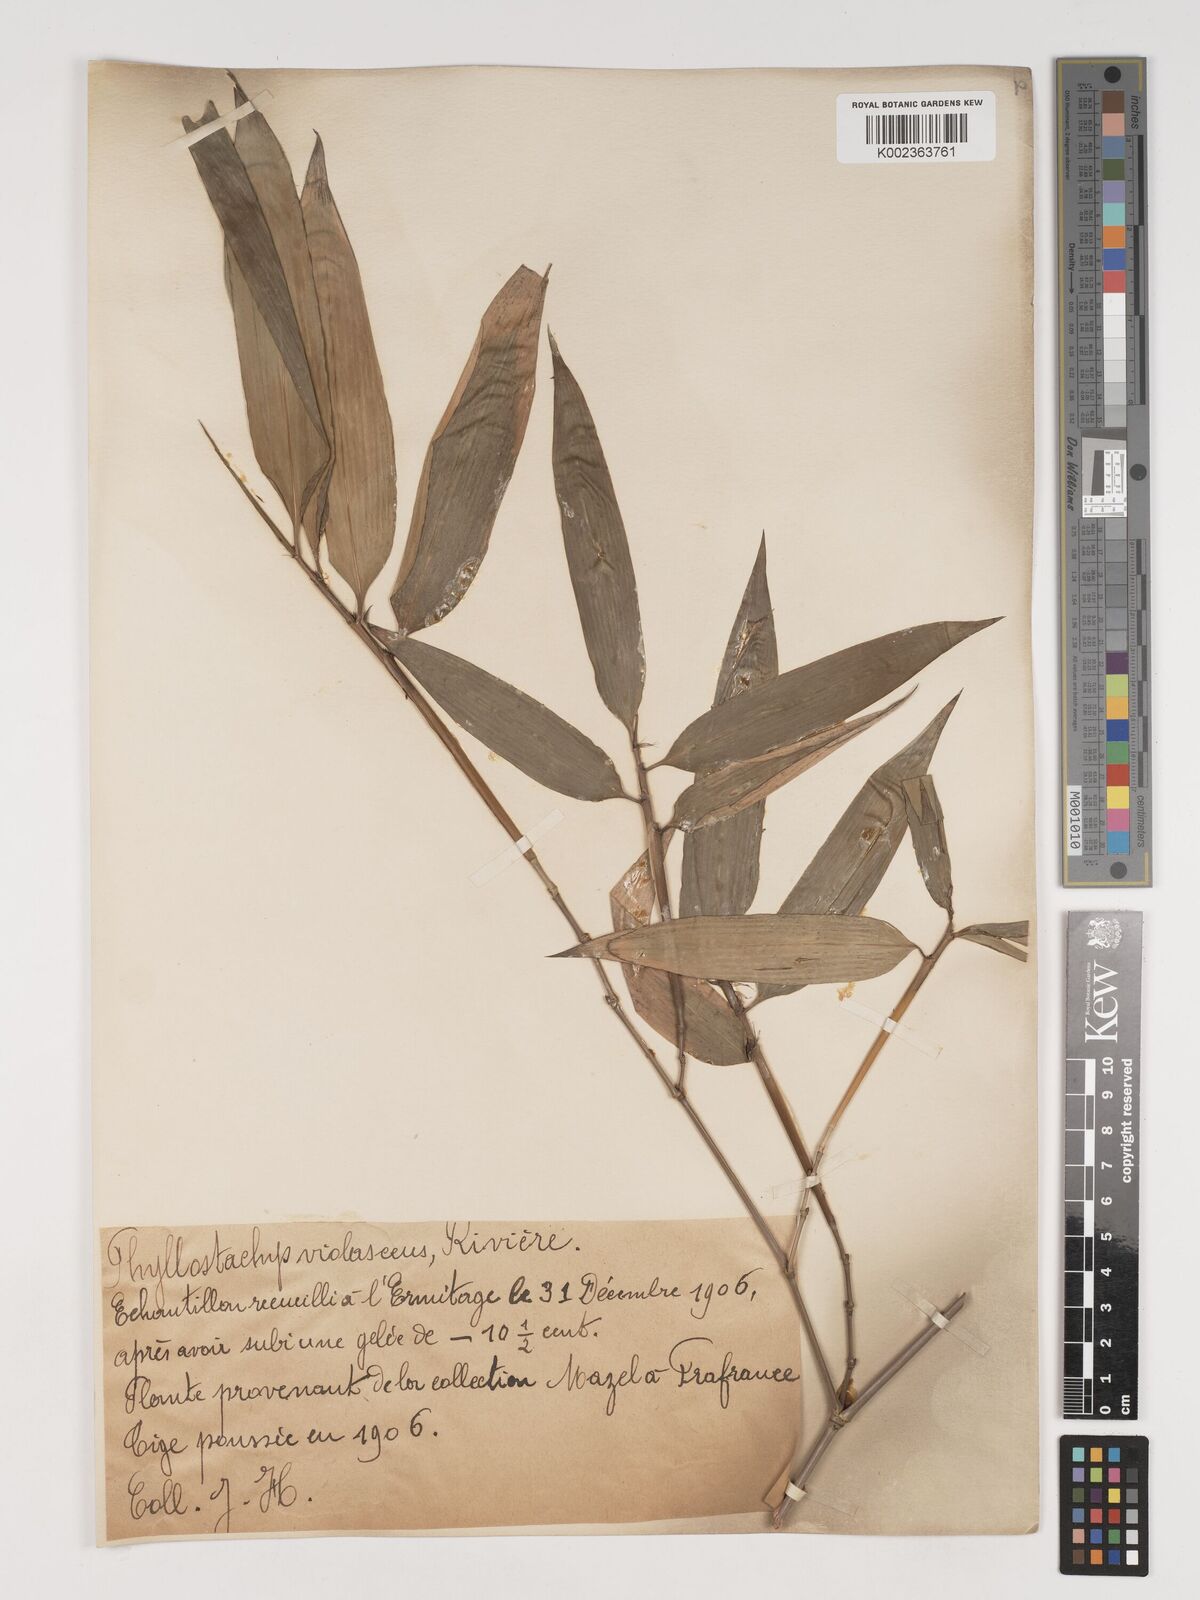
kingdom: Plantae
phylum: Tracheophyta
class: Liliopsida
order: Poales
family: Poaceae
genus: Phyllostachys
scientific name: Phyllostachys reticulata
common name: Bamboo
